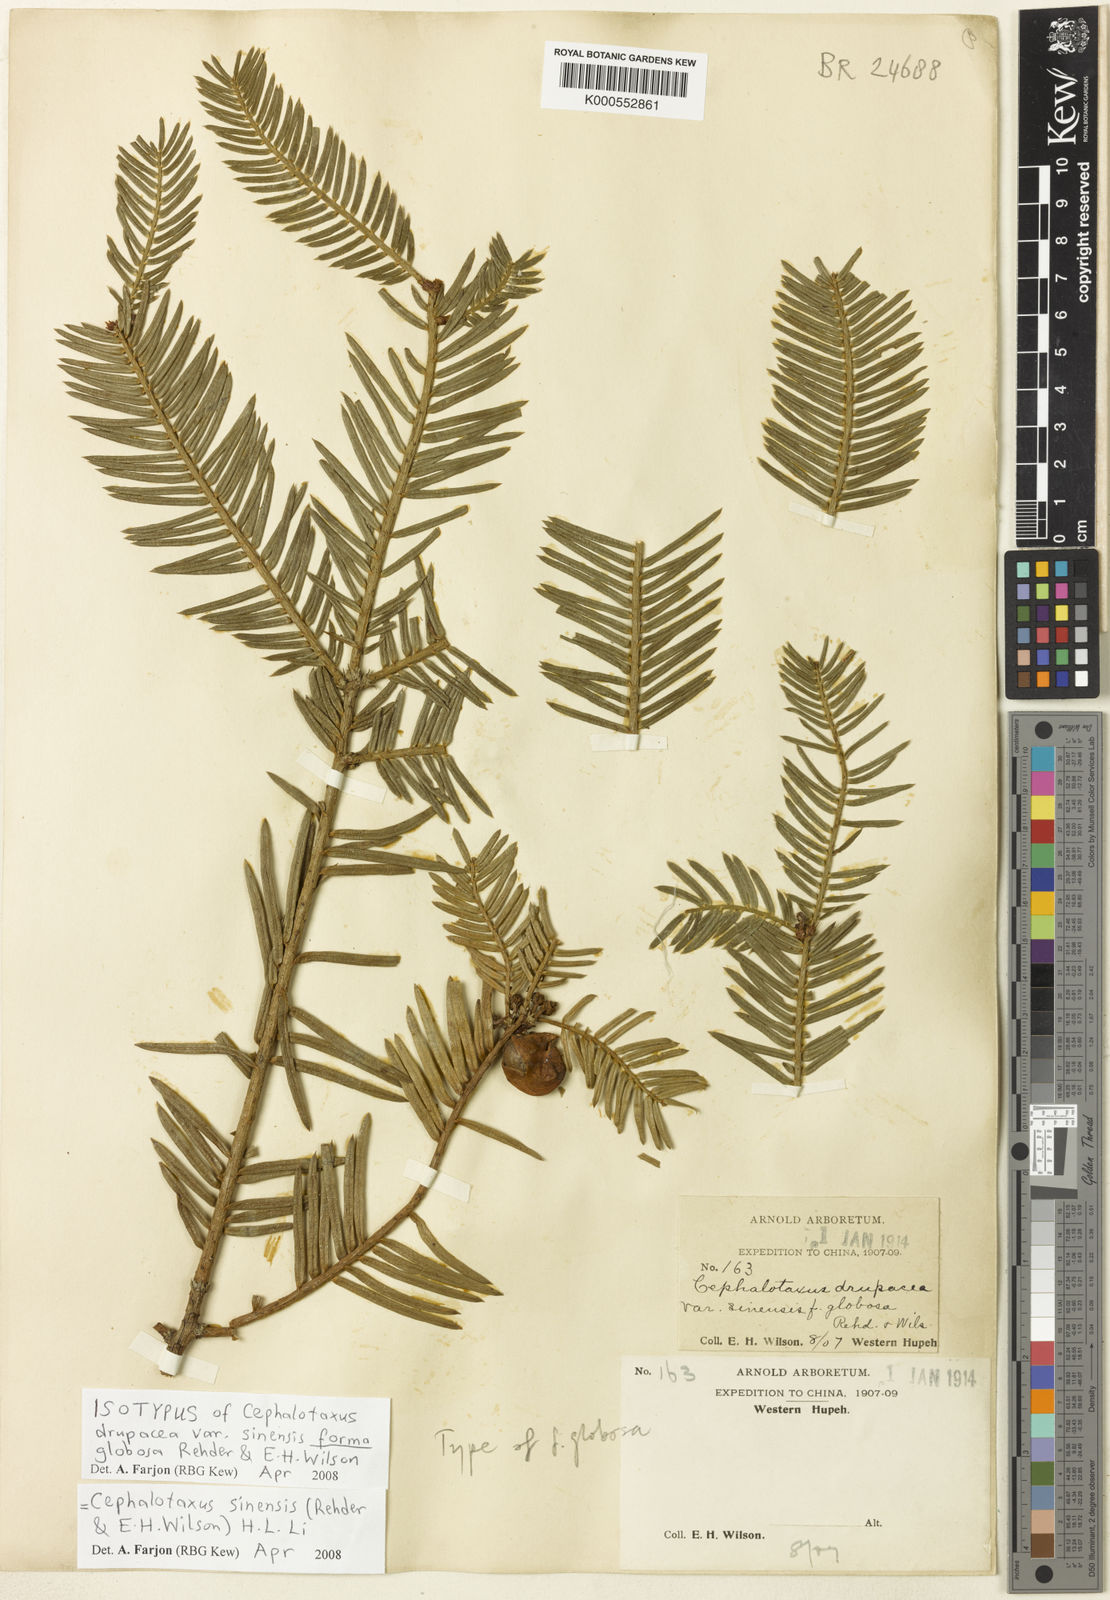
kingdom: Plantae
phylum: Tracheophyta
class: Pinopsida
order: Pinales
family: Cephalotaxaceae
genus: Cephalotaxus
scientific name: Cephalotaxus sinensis
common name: Chinese plum yew
